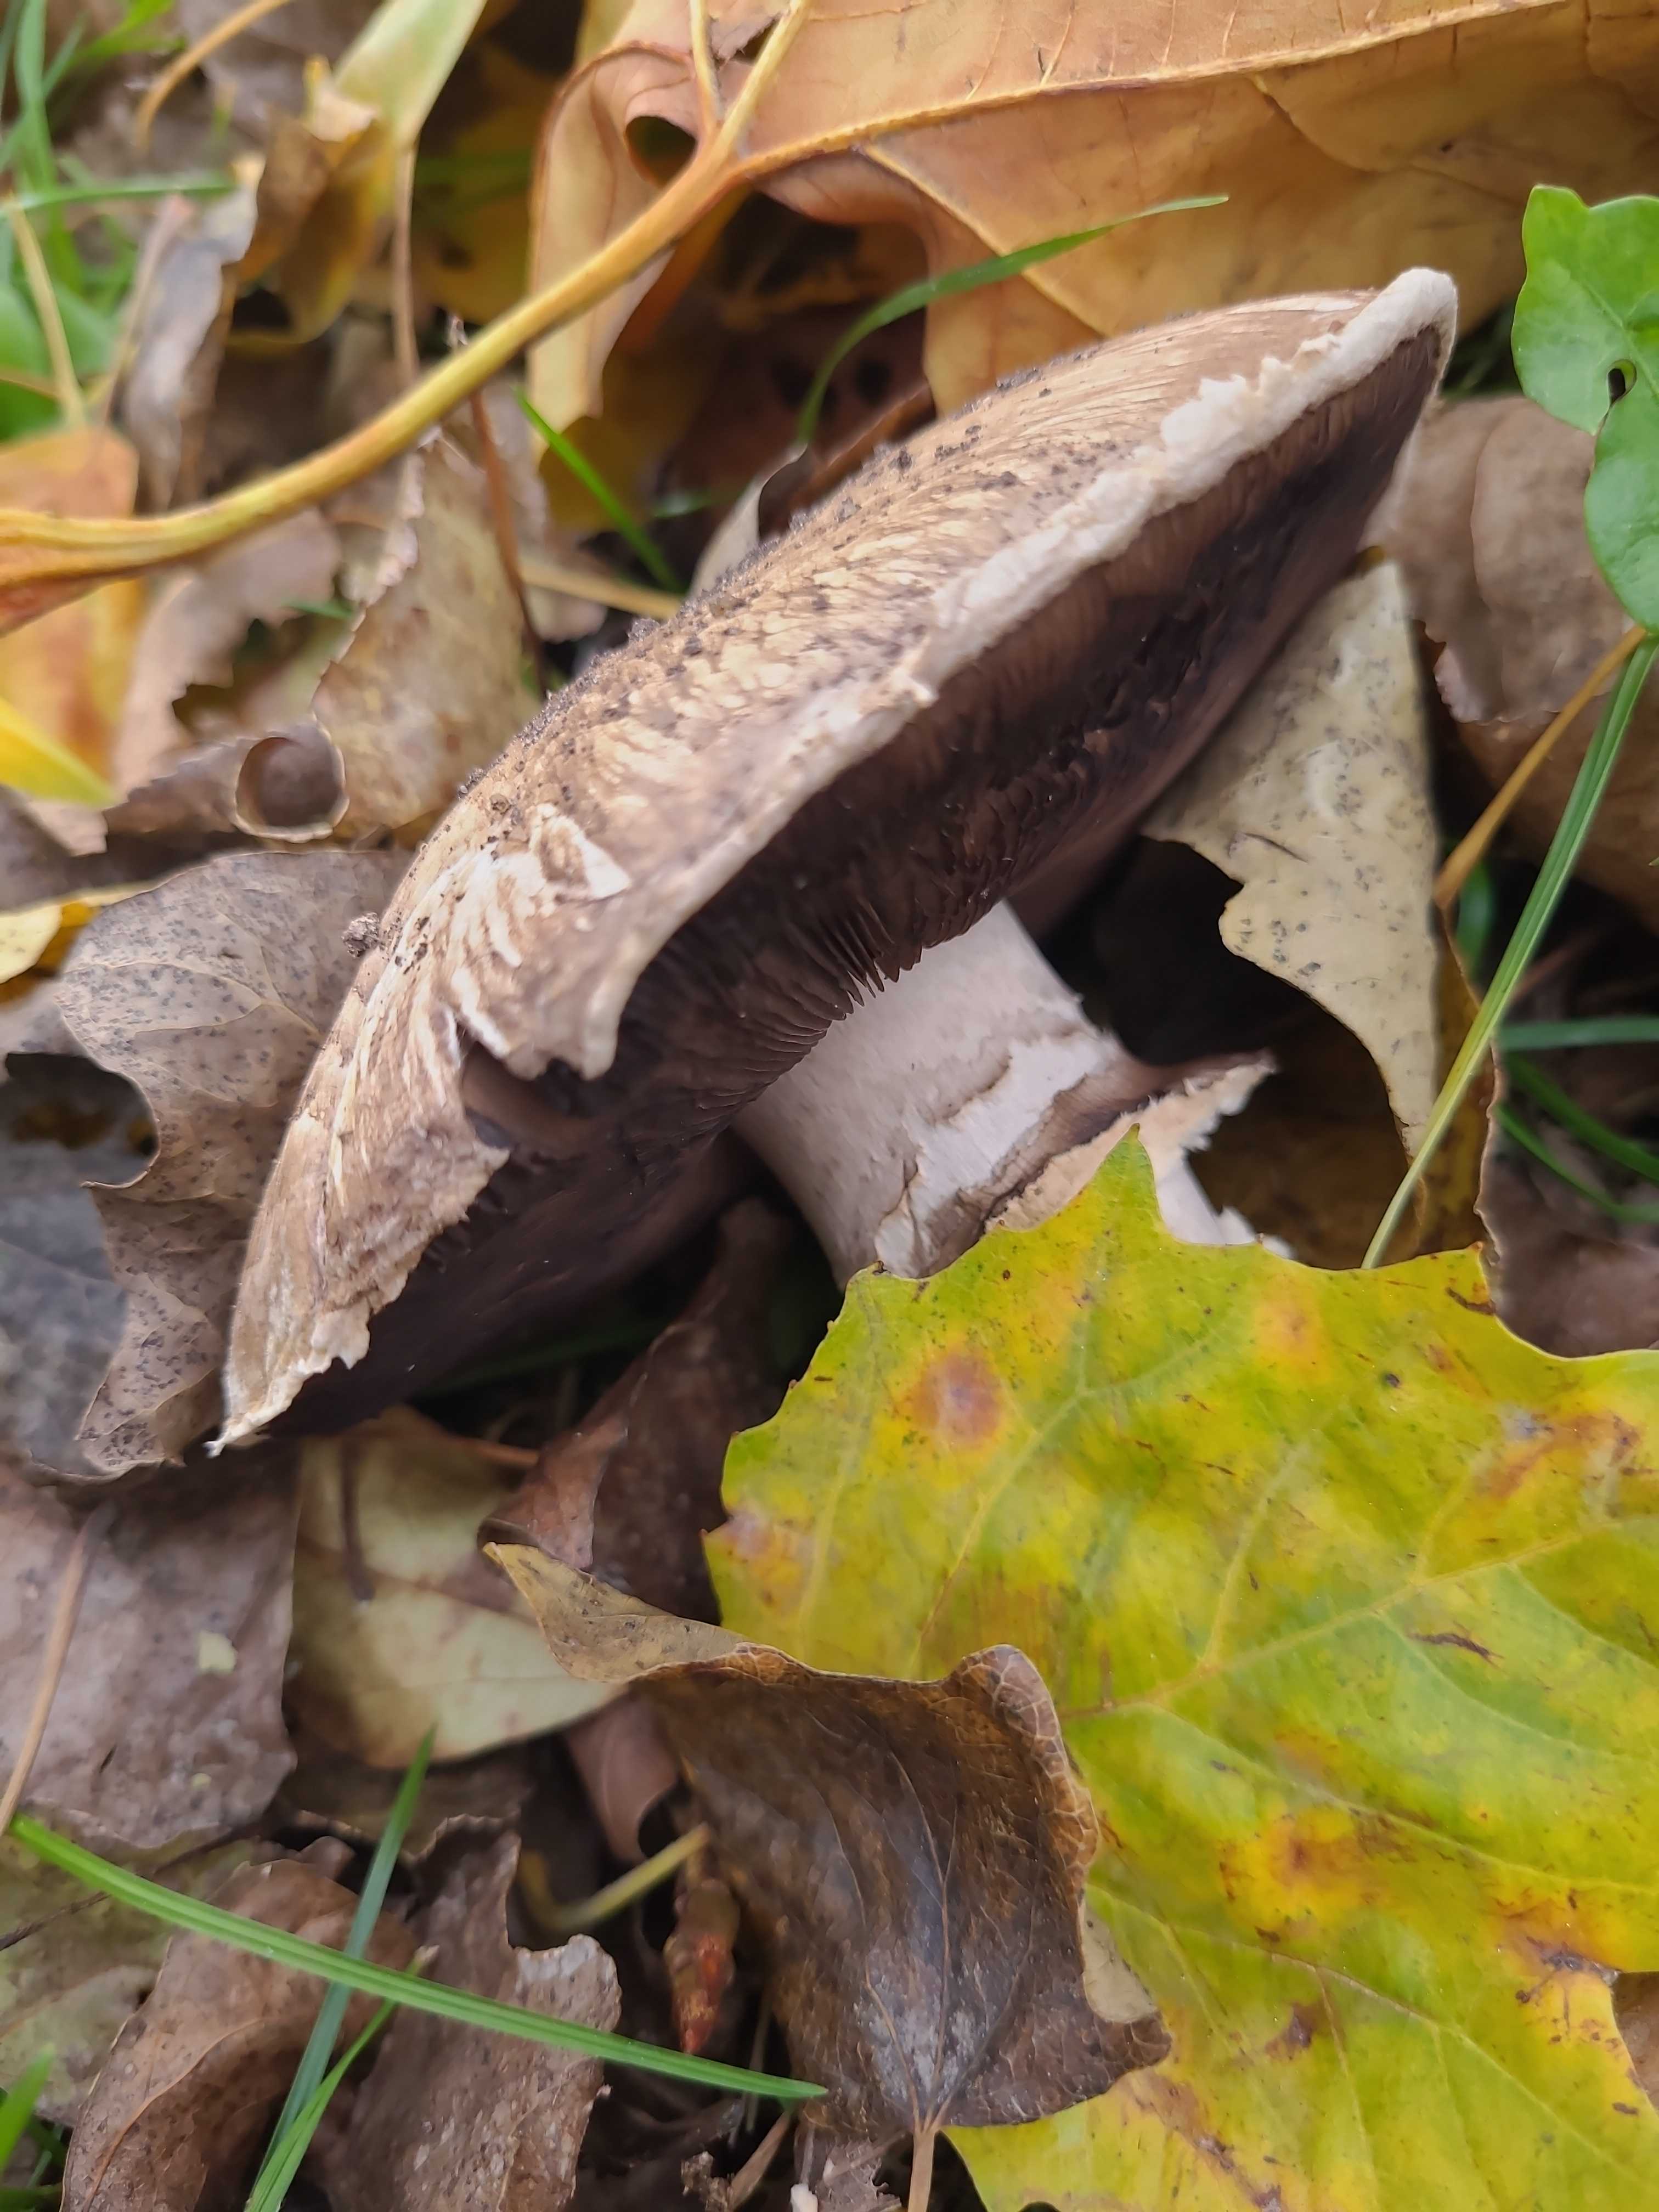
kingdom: Fungi
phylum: Basidiomycota
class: Agaricomycetes
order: Agaricales
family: Agaricaceae
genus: Agaricus
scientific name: Agaricus
